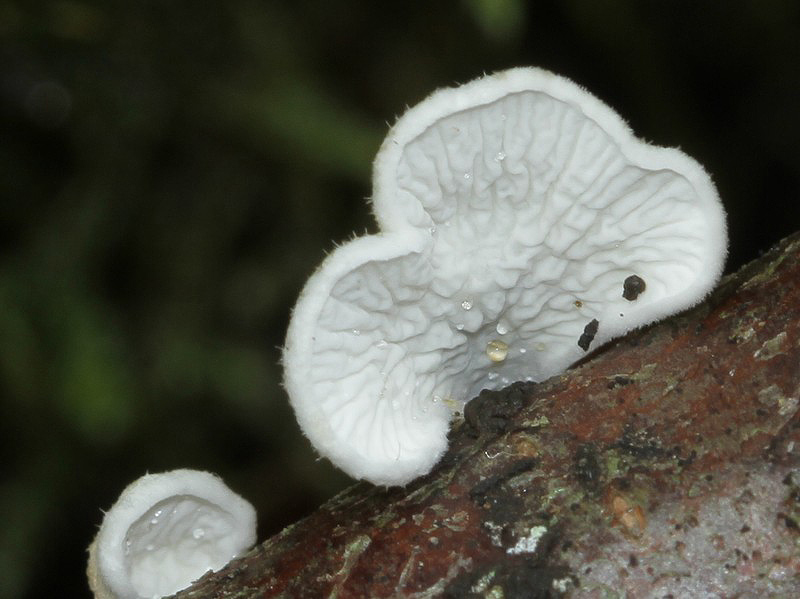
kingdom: Fungi
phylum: Basidiomycota
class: Agaricomycetes
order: Amylocorticiales
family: Amylocorticiaceae
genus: Plicaturopsis
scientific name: Plicaturopsis crispa
